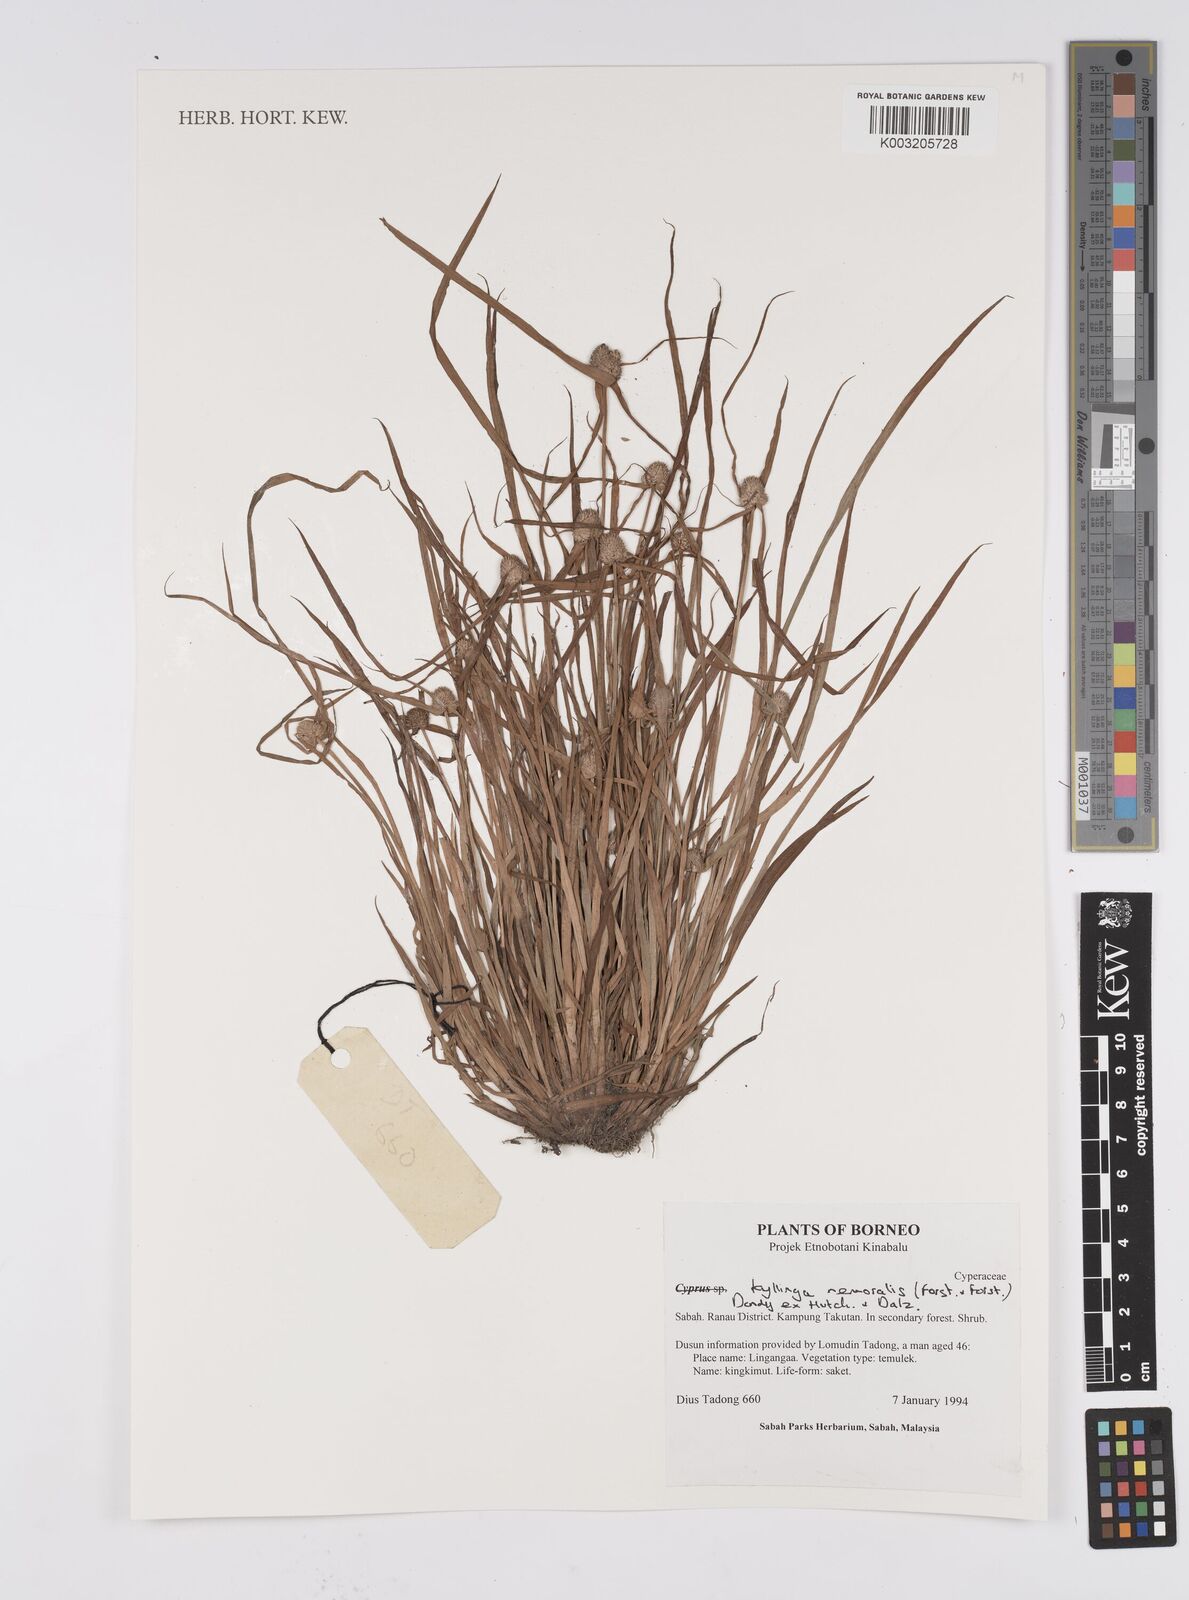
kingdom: Plantae
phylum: Tracheophyta
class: Liliopsida
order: Poales
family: Cyperaceae
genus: Cyperus
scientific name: Cyperus nemoralis
